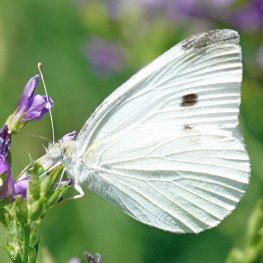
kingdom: Animalia
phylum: Arthropoda
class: Insecta
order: Lepidoptera
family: Pieridae
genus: Pieris
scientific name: Pieris rapae
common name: Cabbage White
